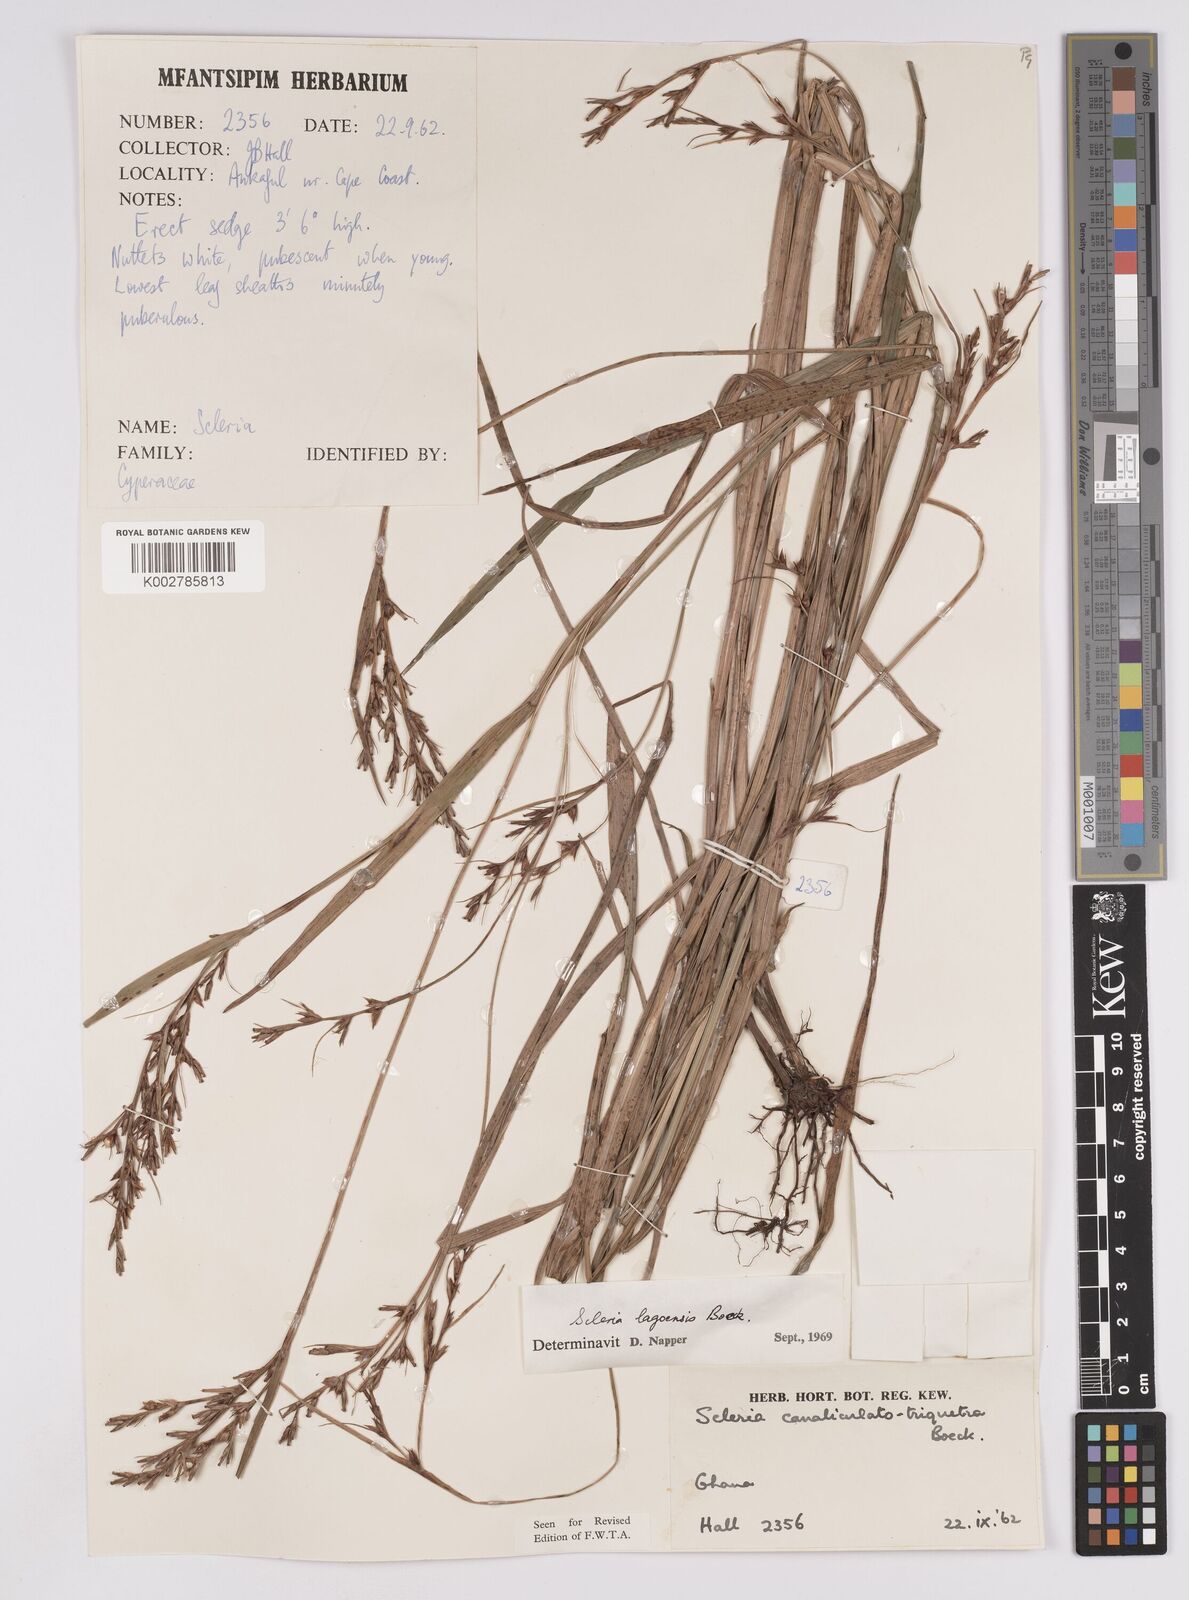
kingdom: Plantae
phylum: Tracheophyta
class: Liliopsida
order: Poales
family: Cyperaceae
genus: Scleria
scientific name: Scleria lagoensis
